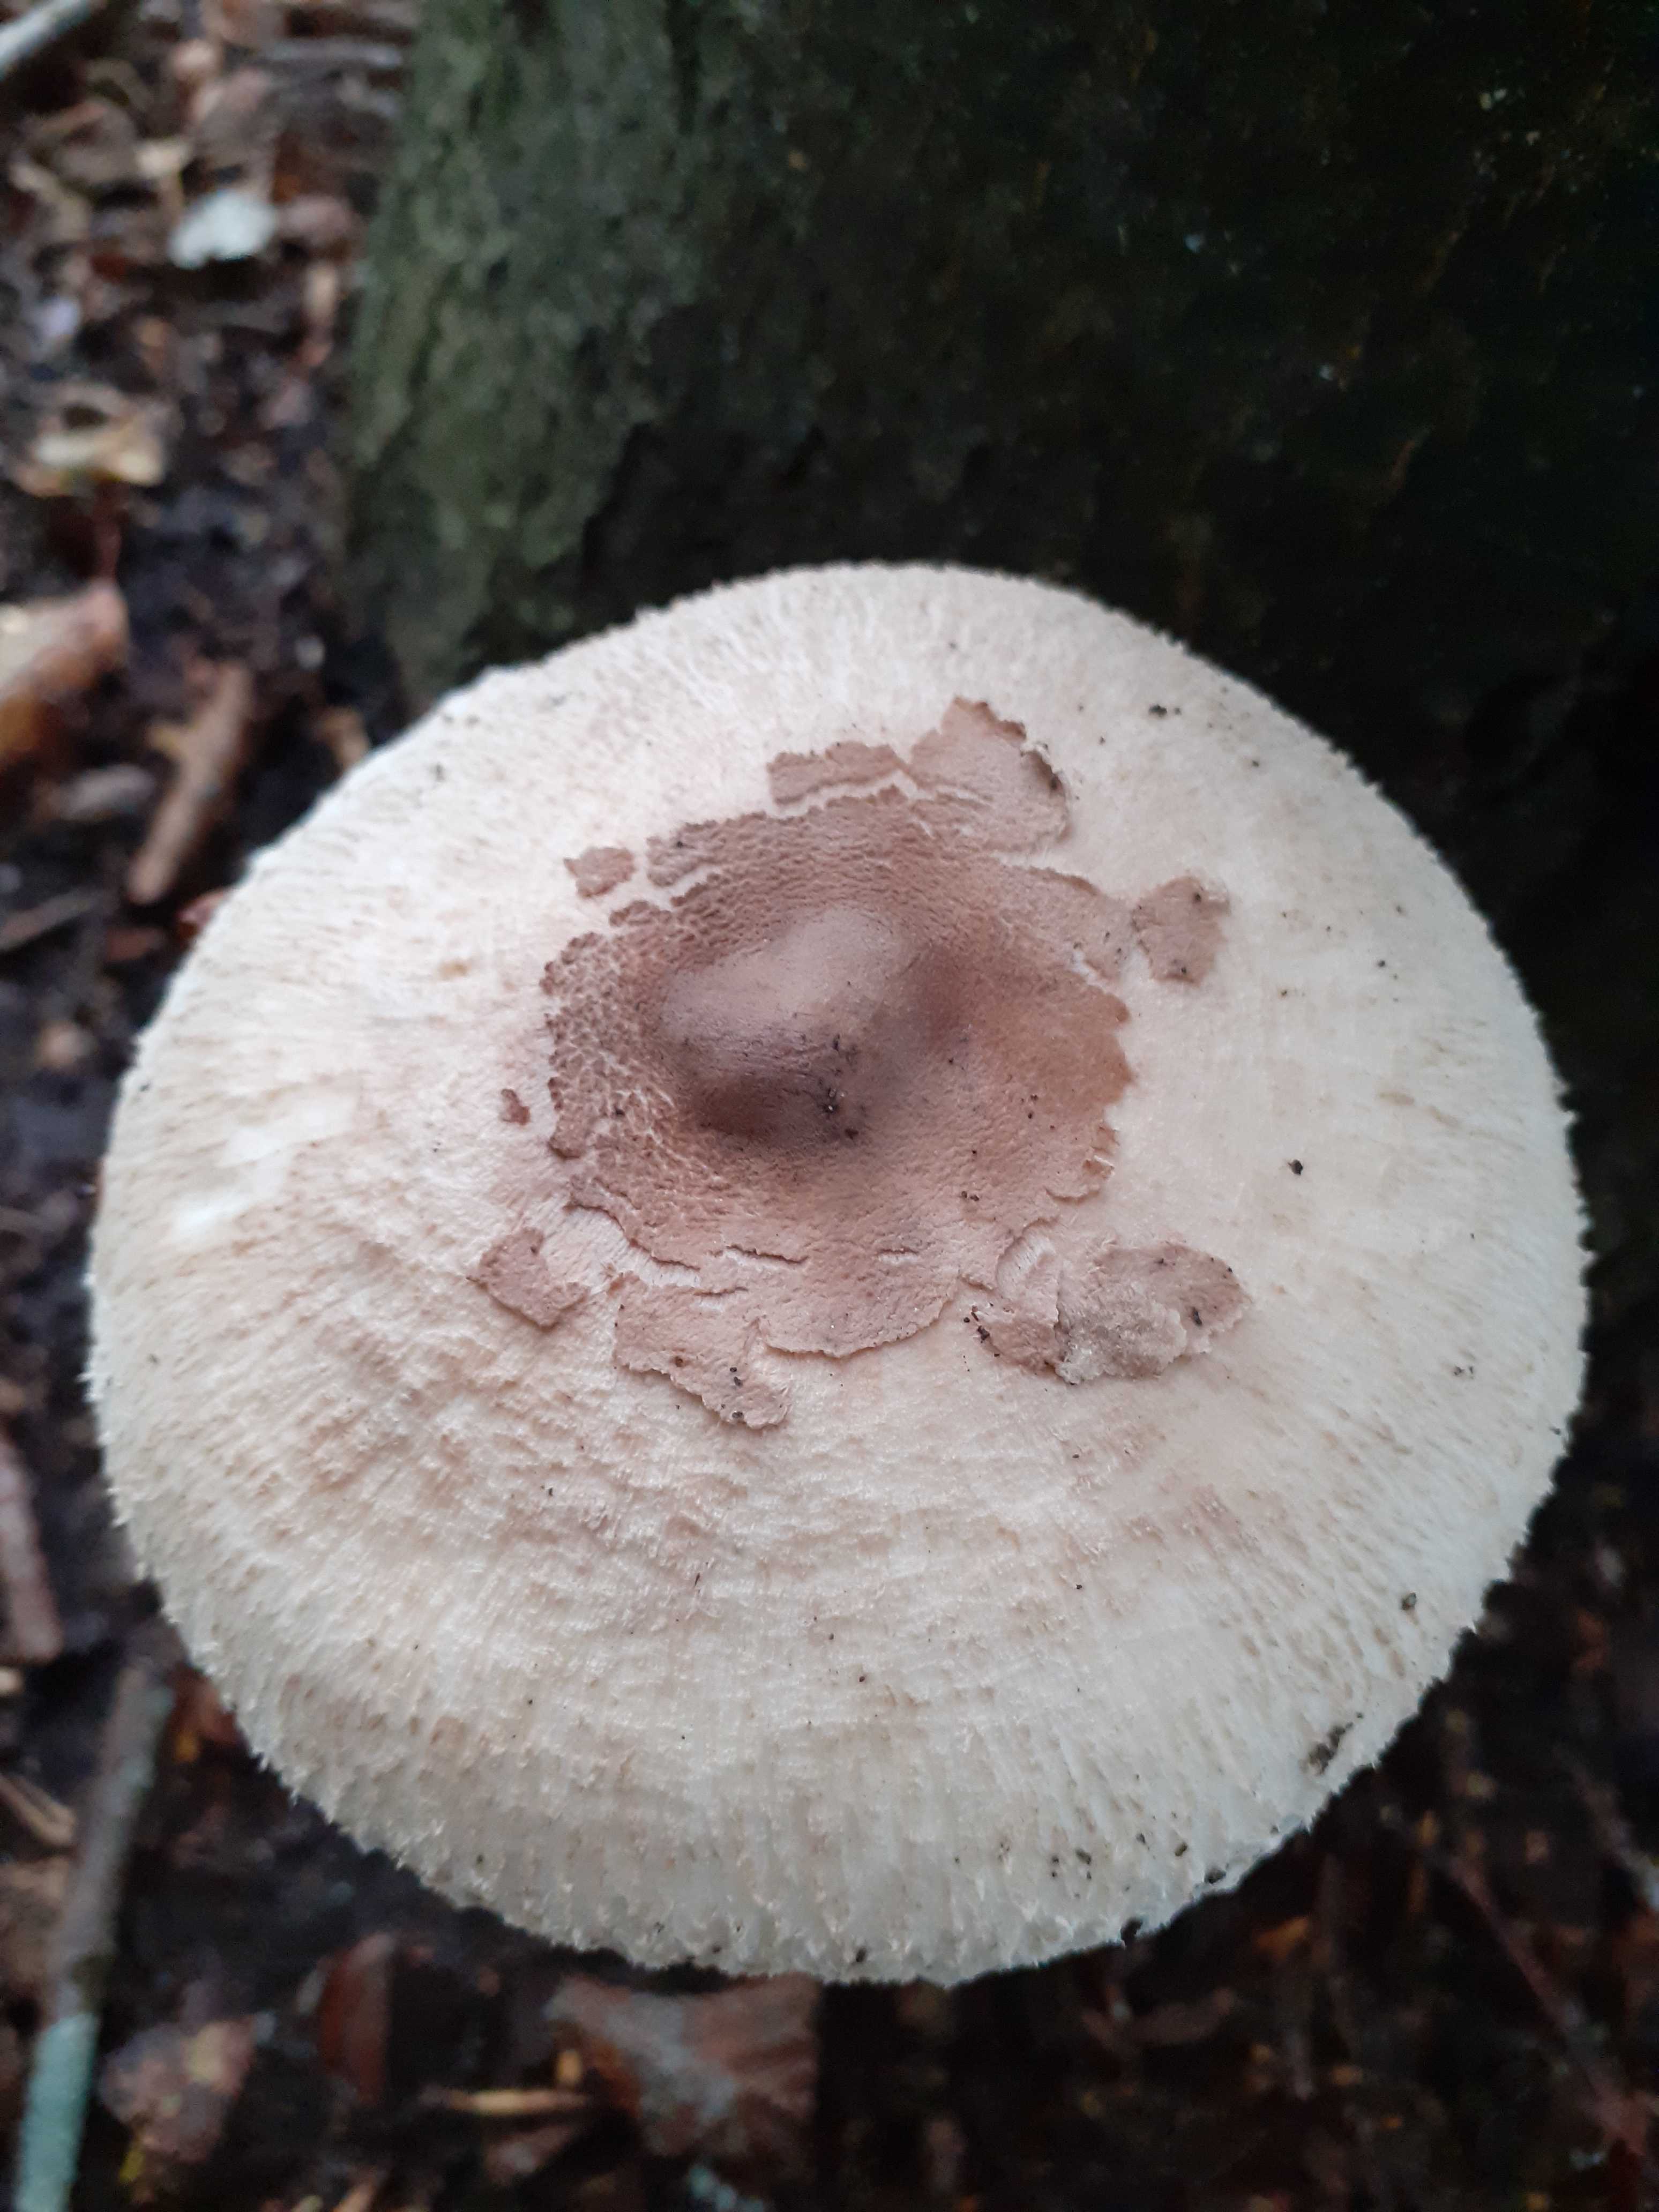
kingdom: Fungi
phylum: Basidiomycota
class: Agaricomycetes
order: Agaricales
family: Agaricaceae
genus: Macrolepiota
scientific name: Macrolepiota mastoidea
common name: puklet kæmpeparasolhat
